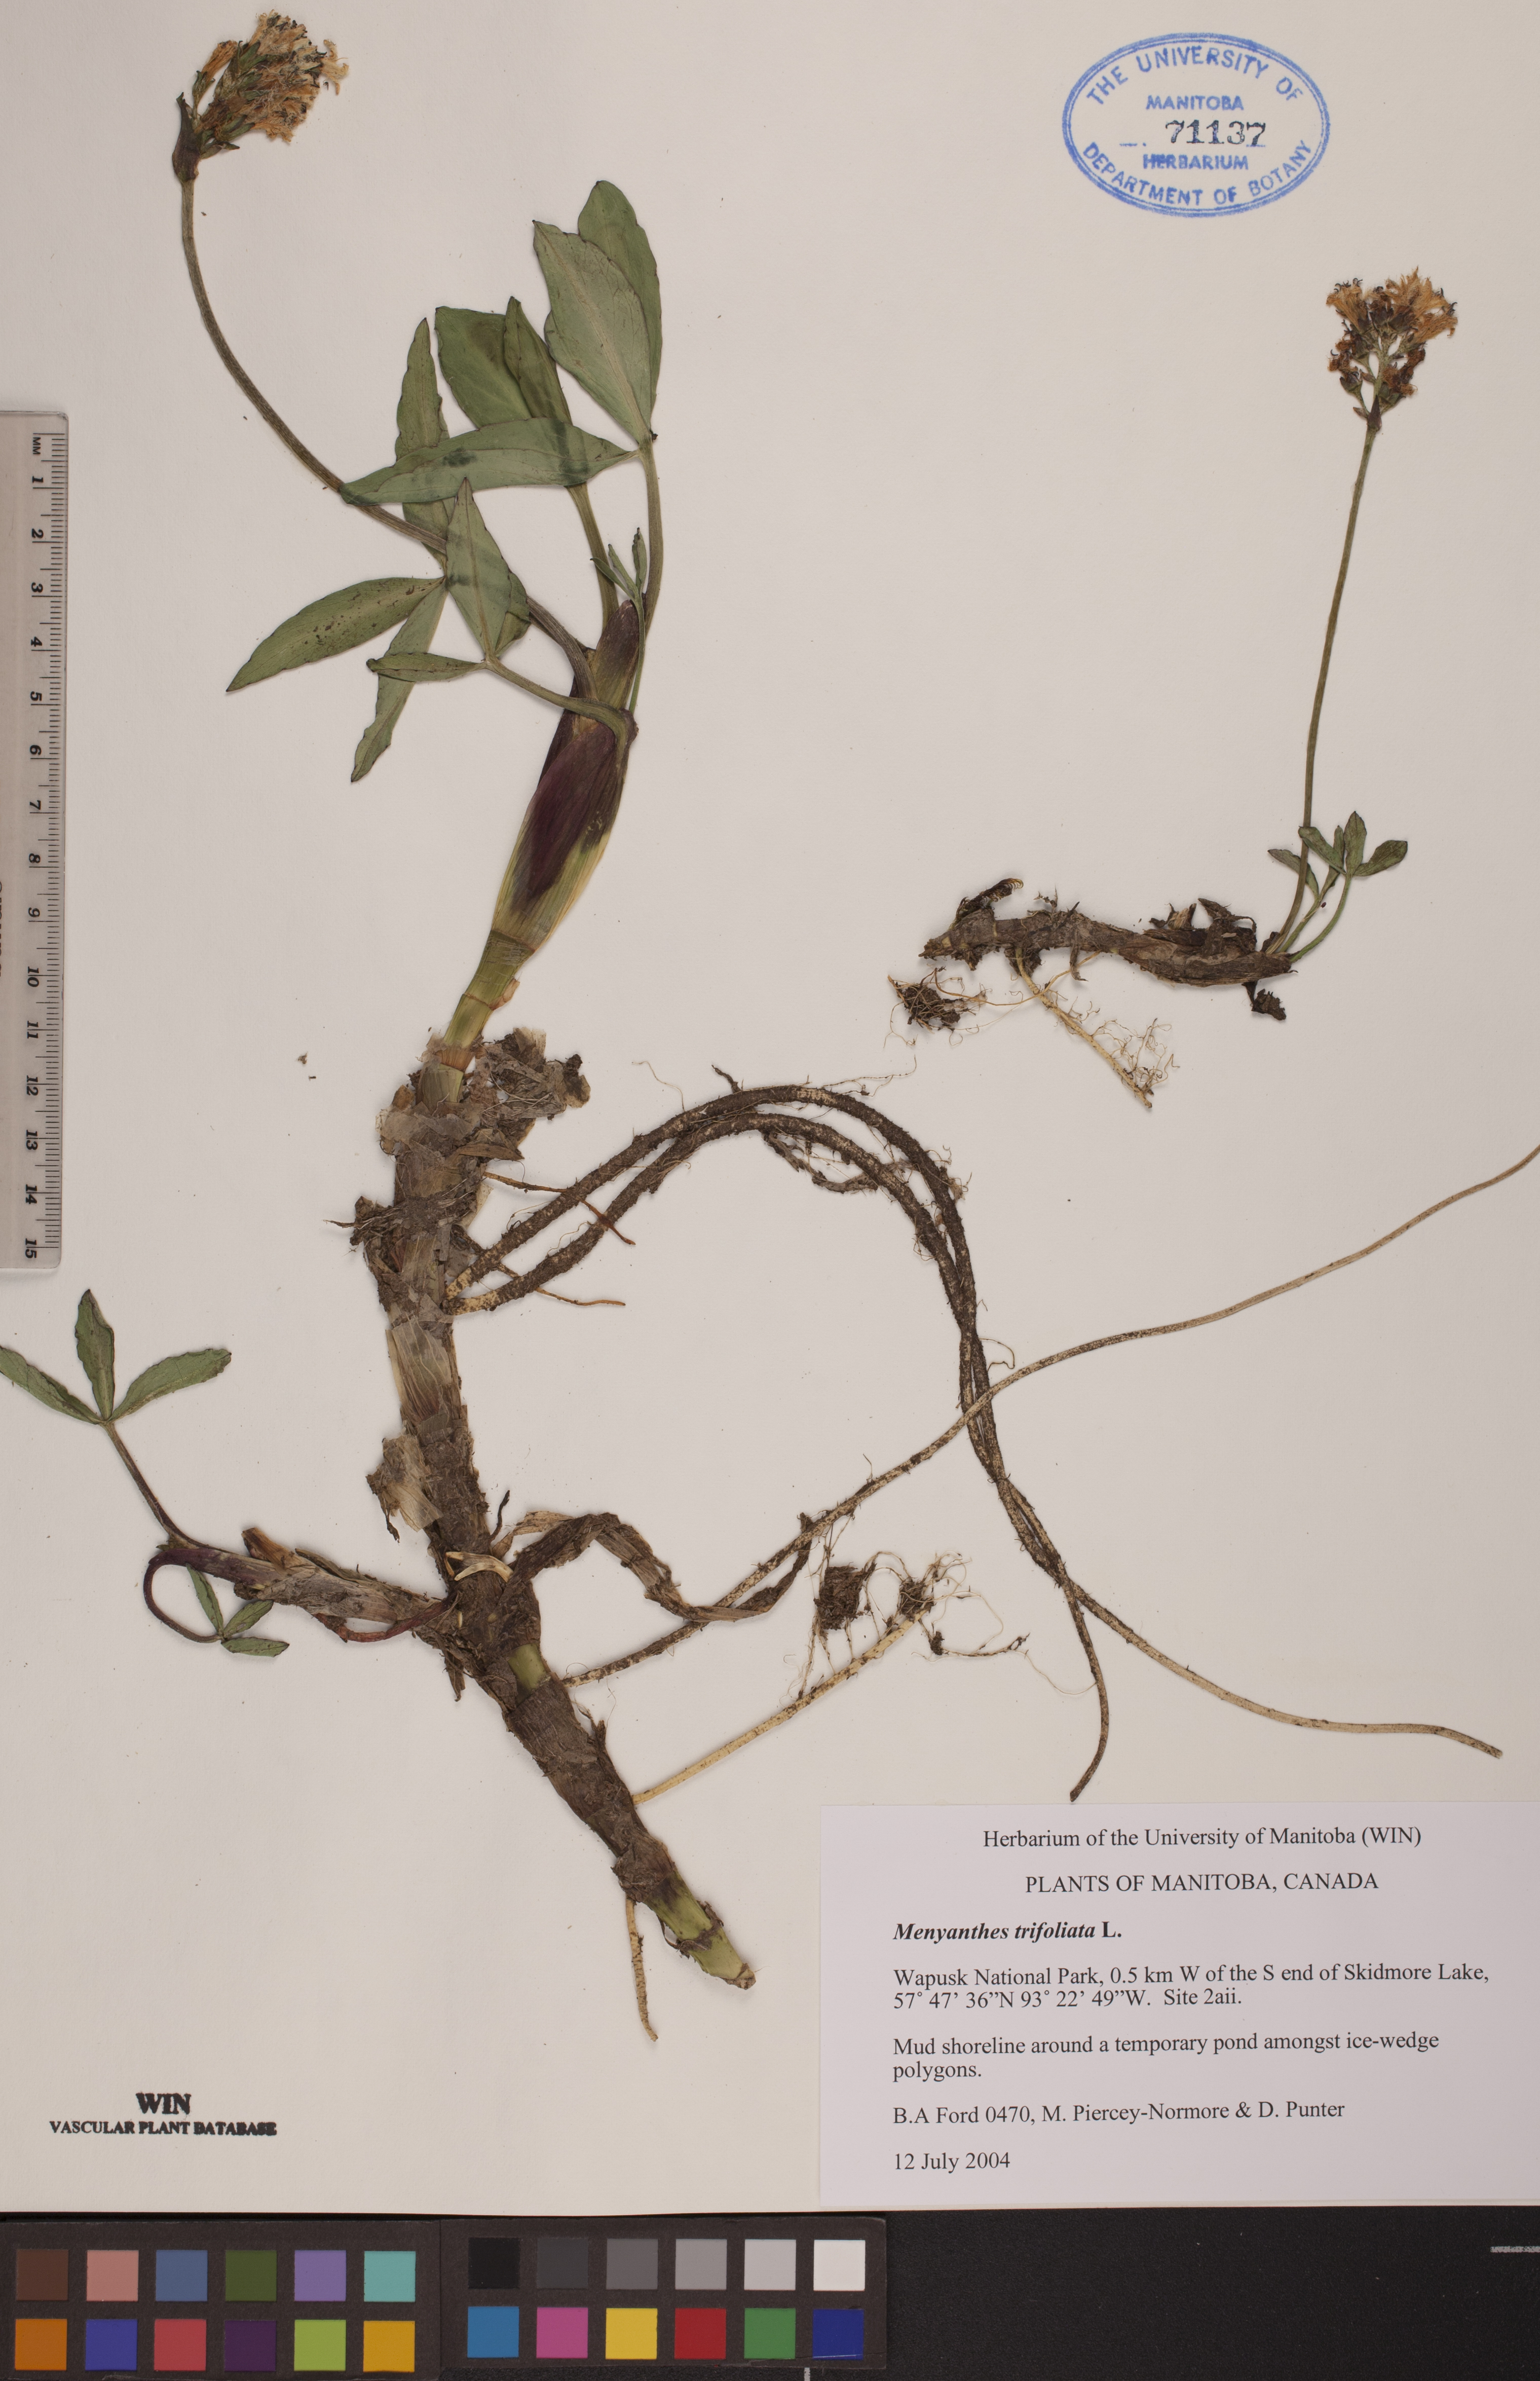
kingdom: Plantae
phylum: Tracheophyta
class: Magnoliopsida
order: Asterales
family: Menyanthaceae
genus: Menyanthes
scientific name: Menyanthes trifoliata
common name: Bogbean
